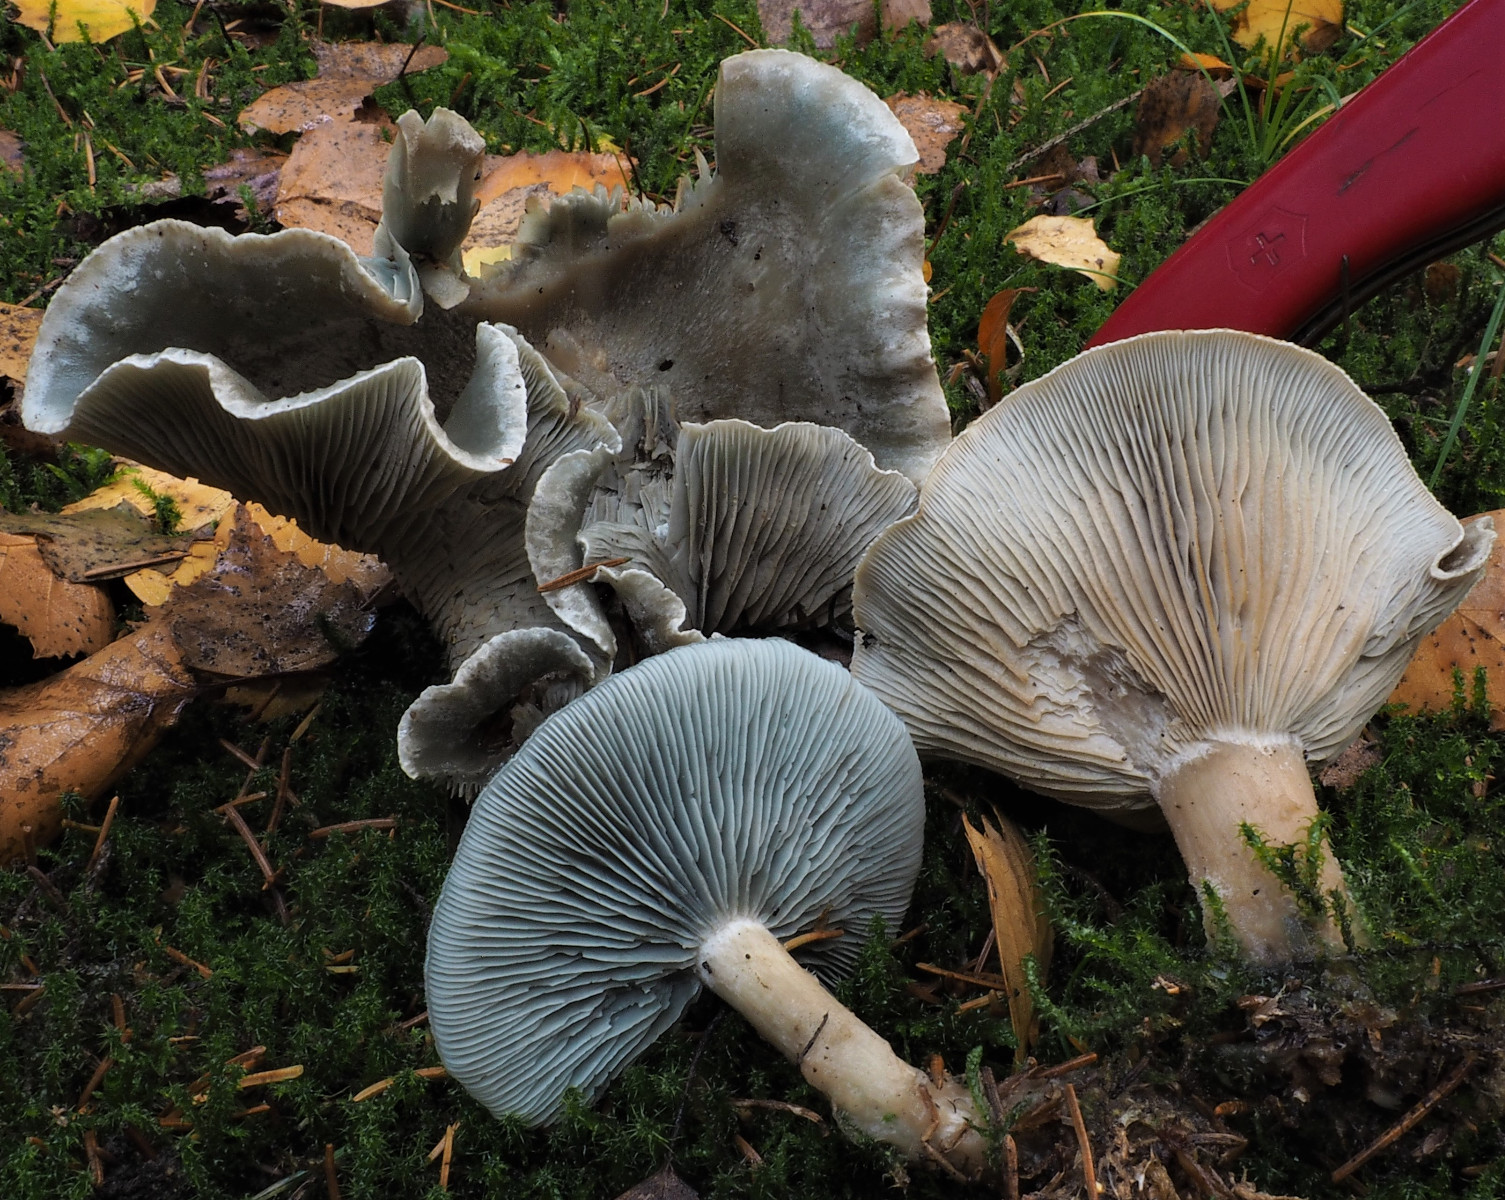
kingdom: Fungi
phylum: Basidiomycota
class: Agaricomycetes
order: Agaricales
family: Tricholomataceae
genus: Clitocybe
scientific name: Clitocybe odora
